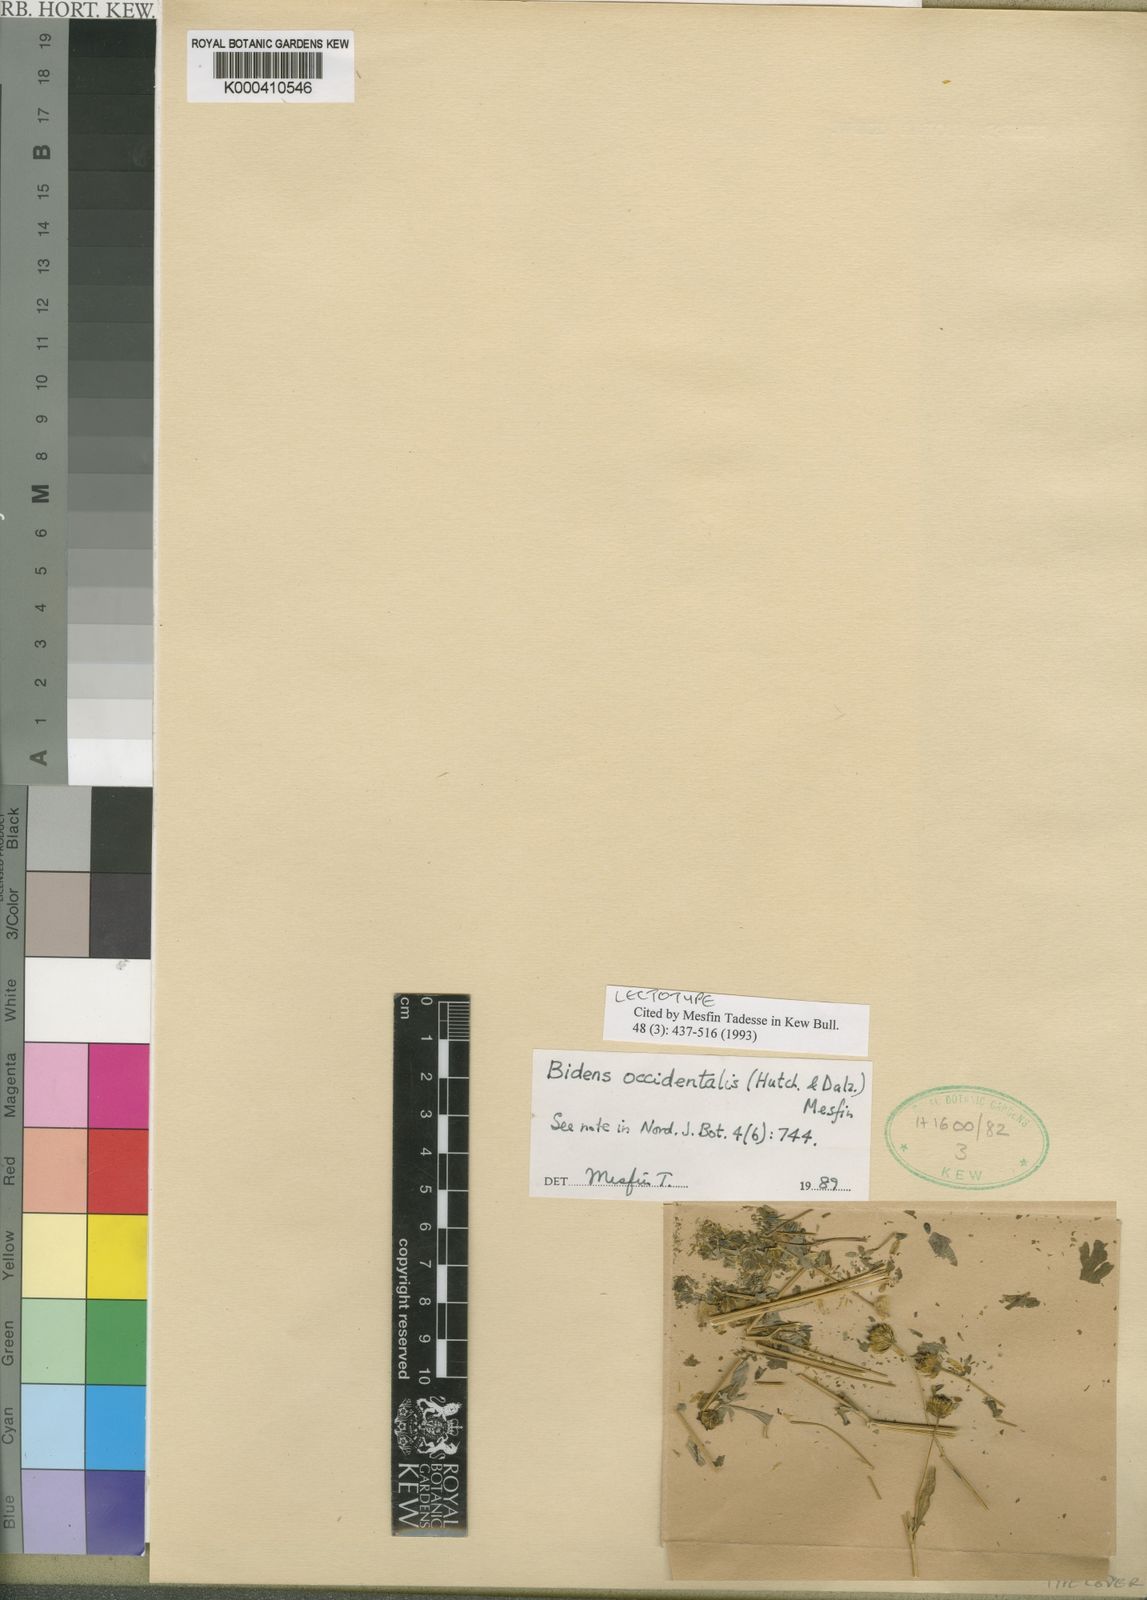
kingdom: Plantae
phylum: Tracheophyta
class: Magnoliopsida
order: Asterales
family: Asteraceae
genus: Bidens
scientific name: Bidens occidentalis
